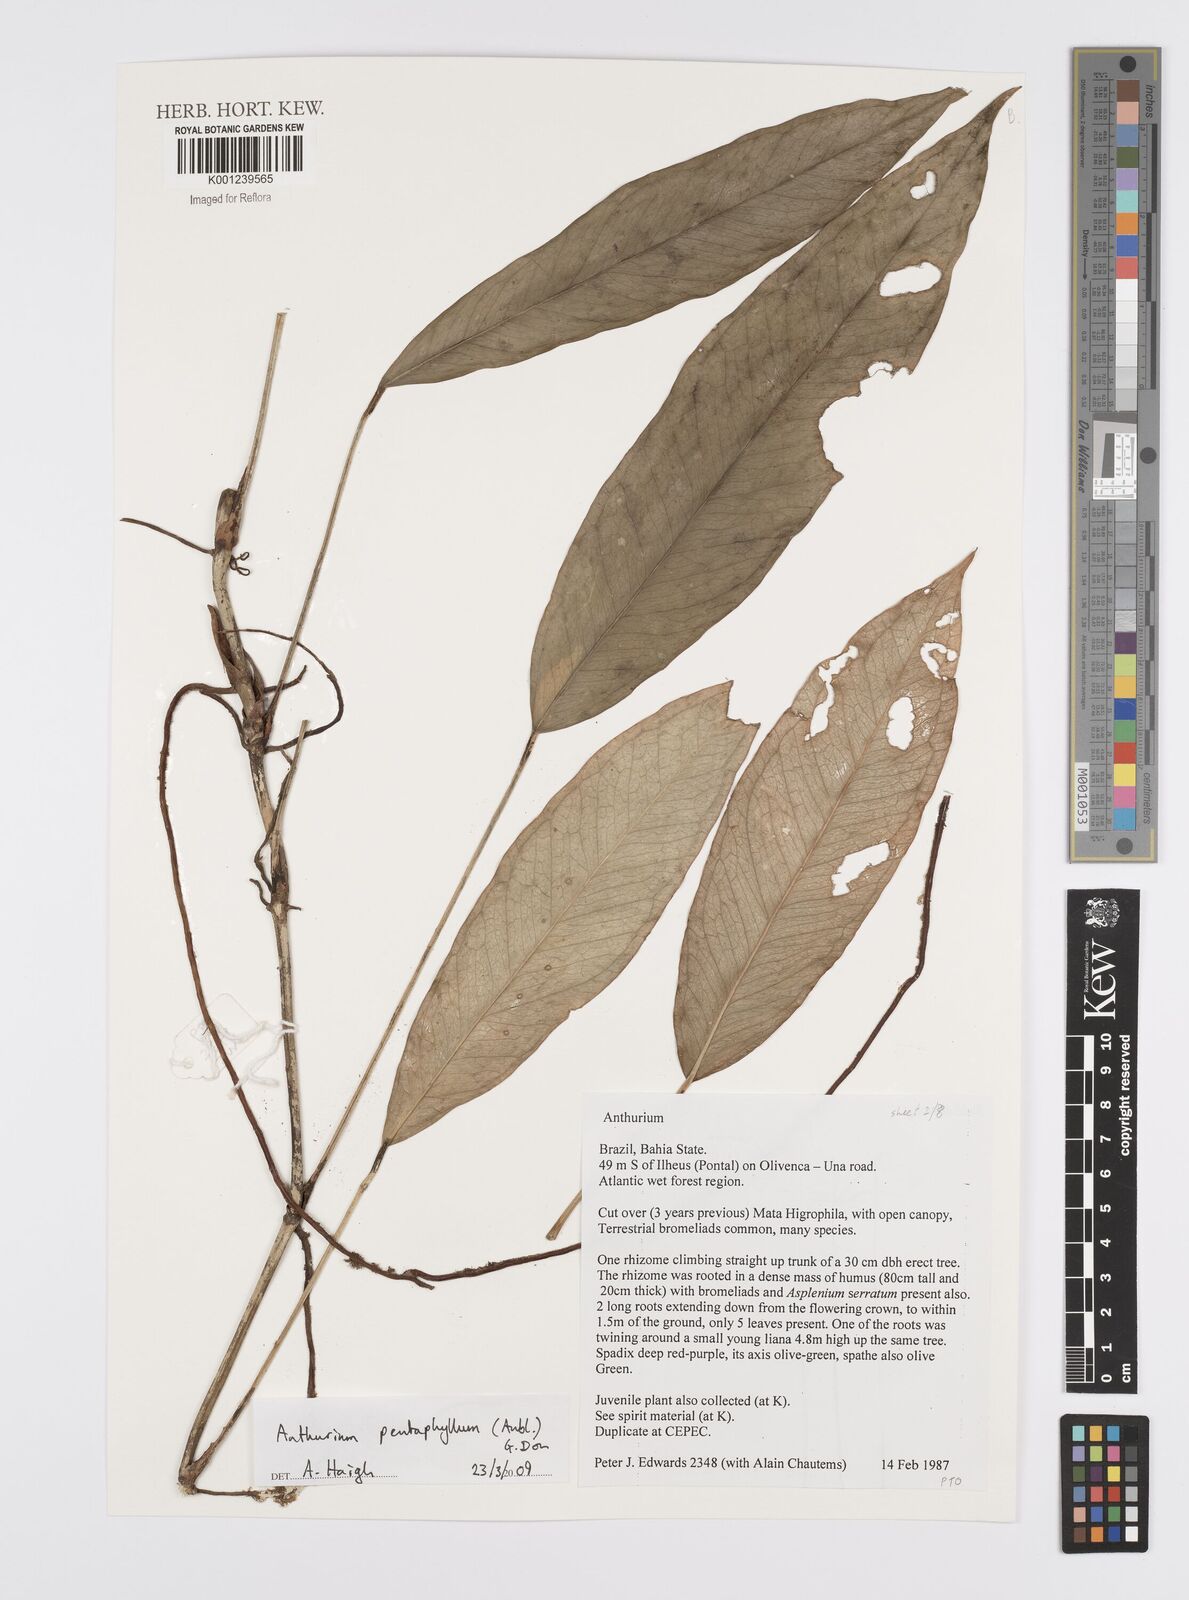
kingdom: Plantae
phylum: Tracheophyta
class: Liliopsida
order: Alismatales
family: Araceae
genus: Anthurium
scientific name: Anthurium pentaphyllum
